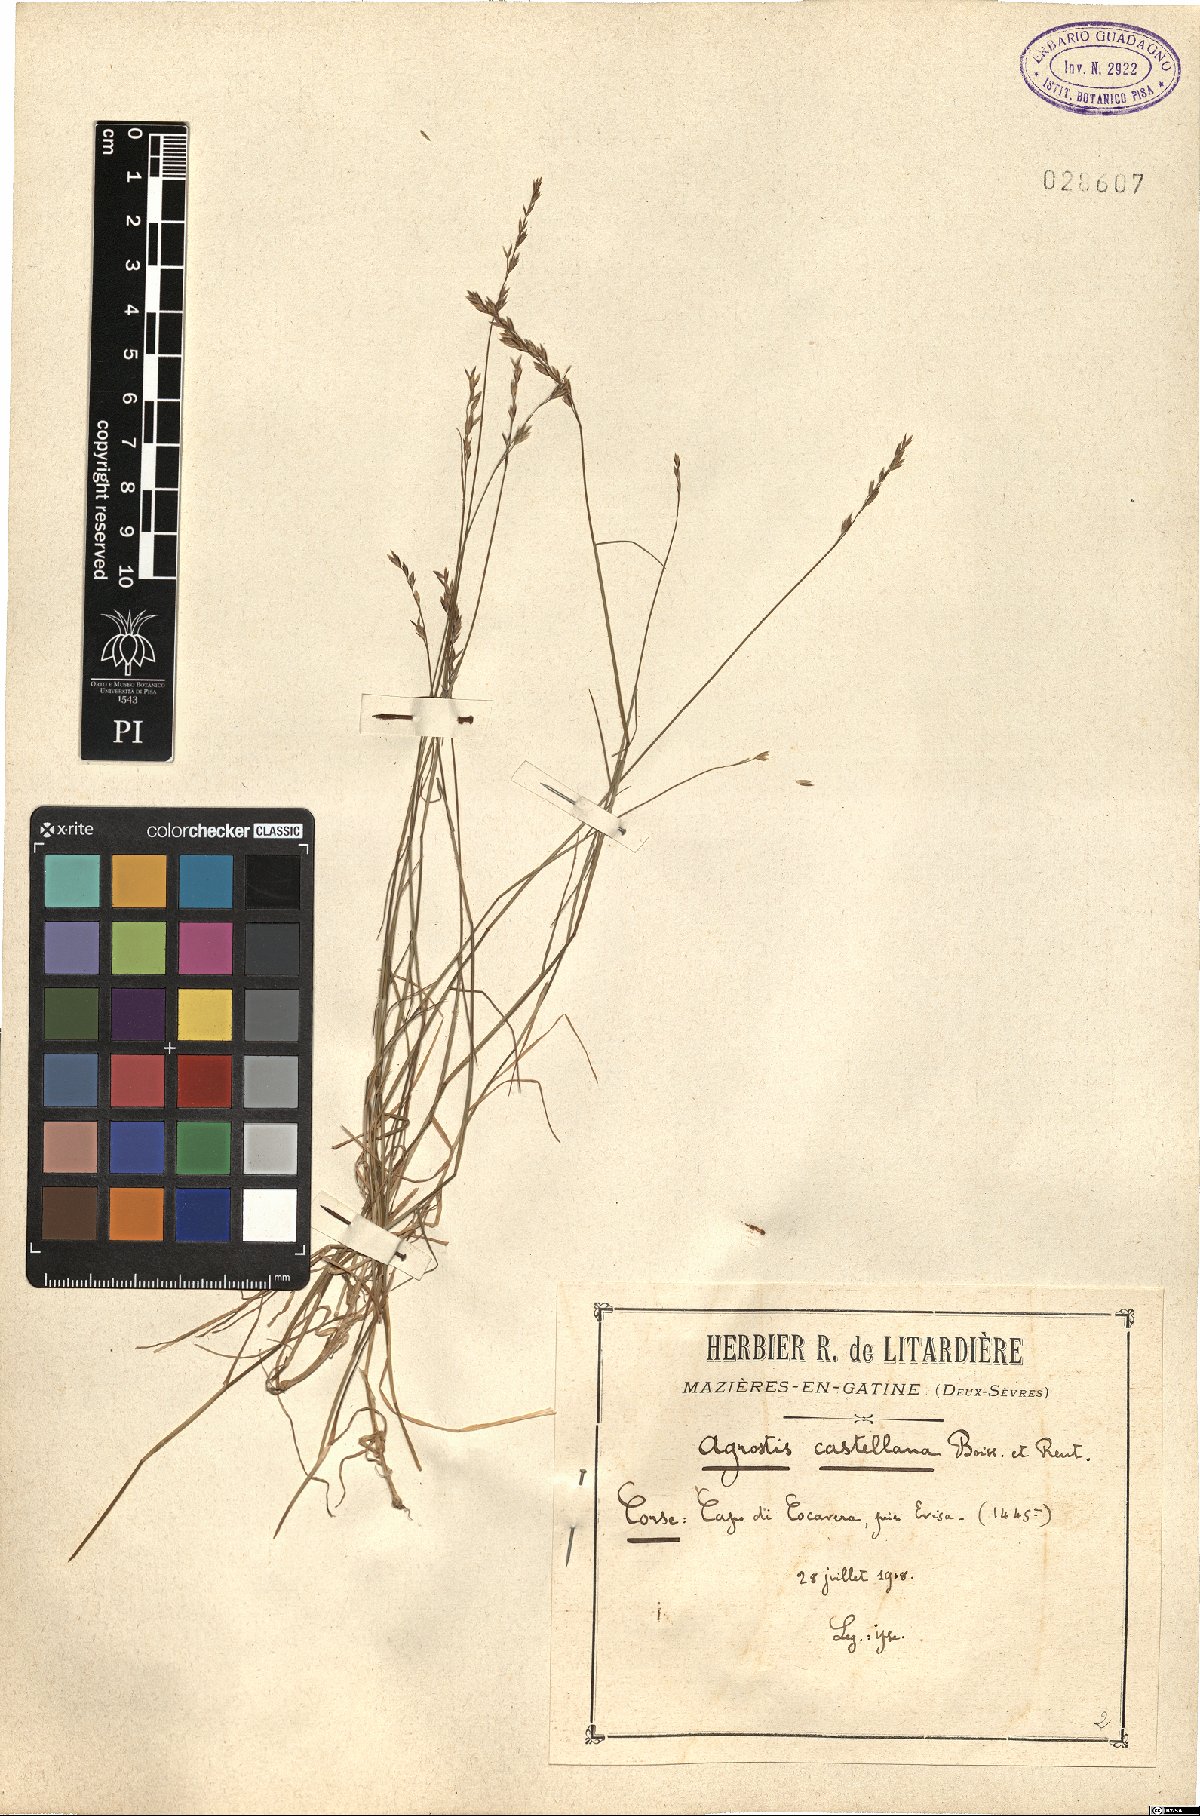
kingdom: Plantae
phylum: Tracheophyta
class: Liliopsida
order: Poales
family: Poaceae
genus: Agrostis
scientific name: Agrostis castellana
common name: Highland bent
